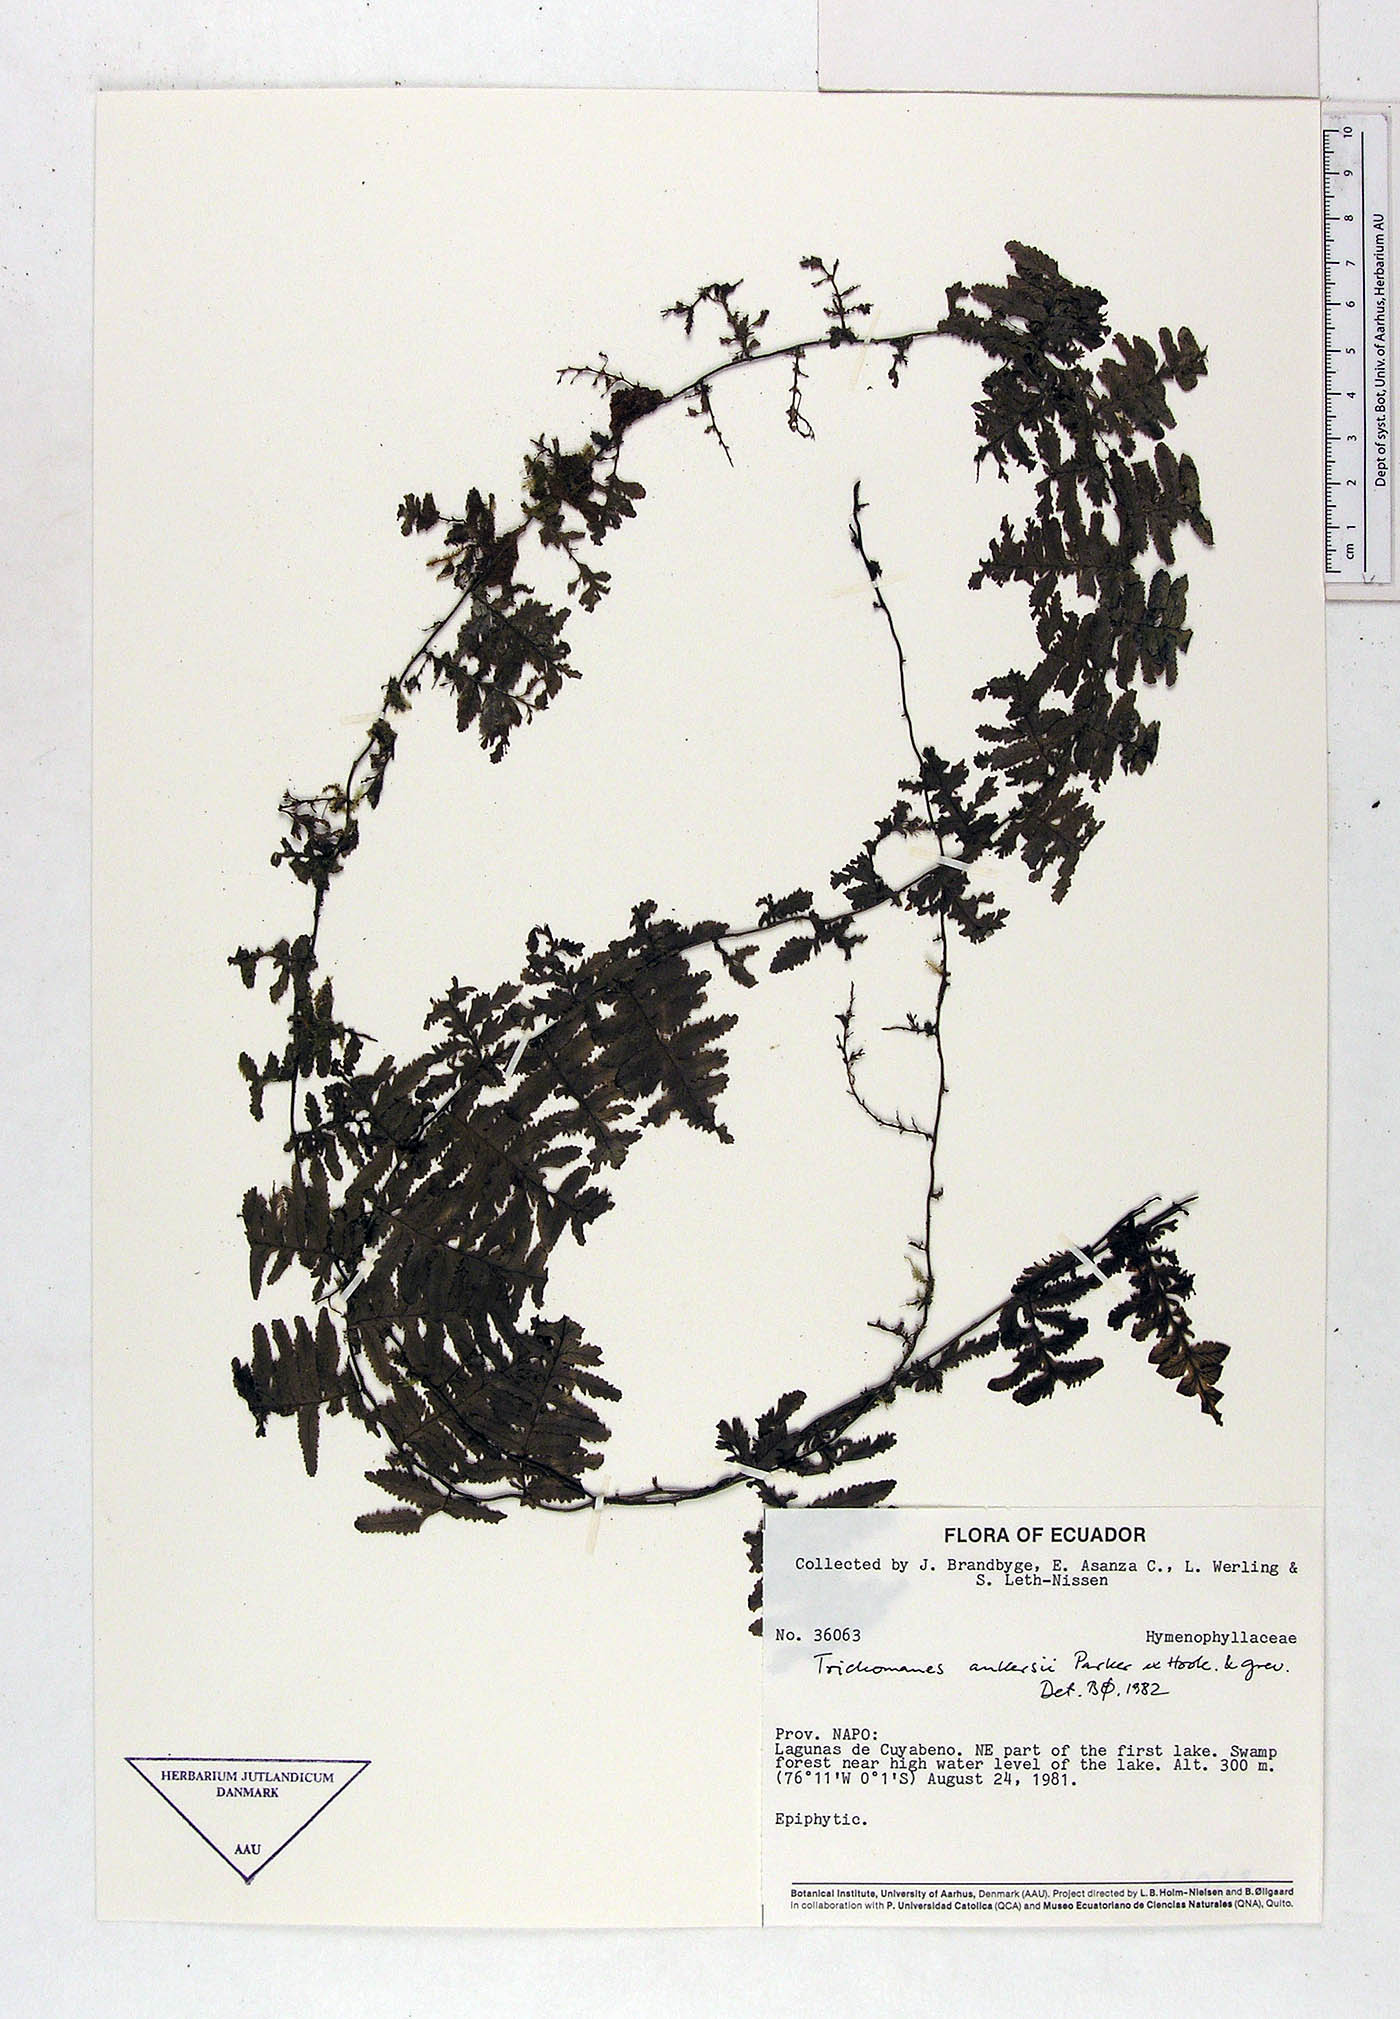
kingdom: Plantae
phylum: Tracheophyta
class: Polypodiopsida
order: Hymenophyllales
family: Hymenophyllaceae
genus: Trichomanes
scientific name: Trichomanes ankersii
